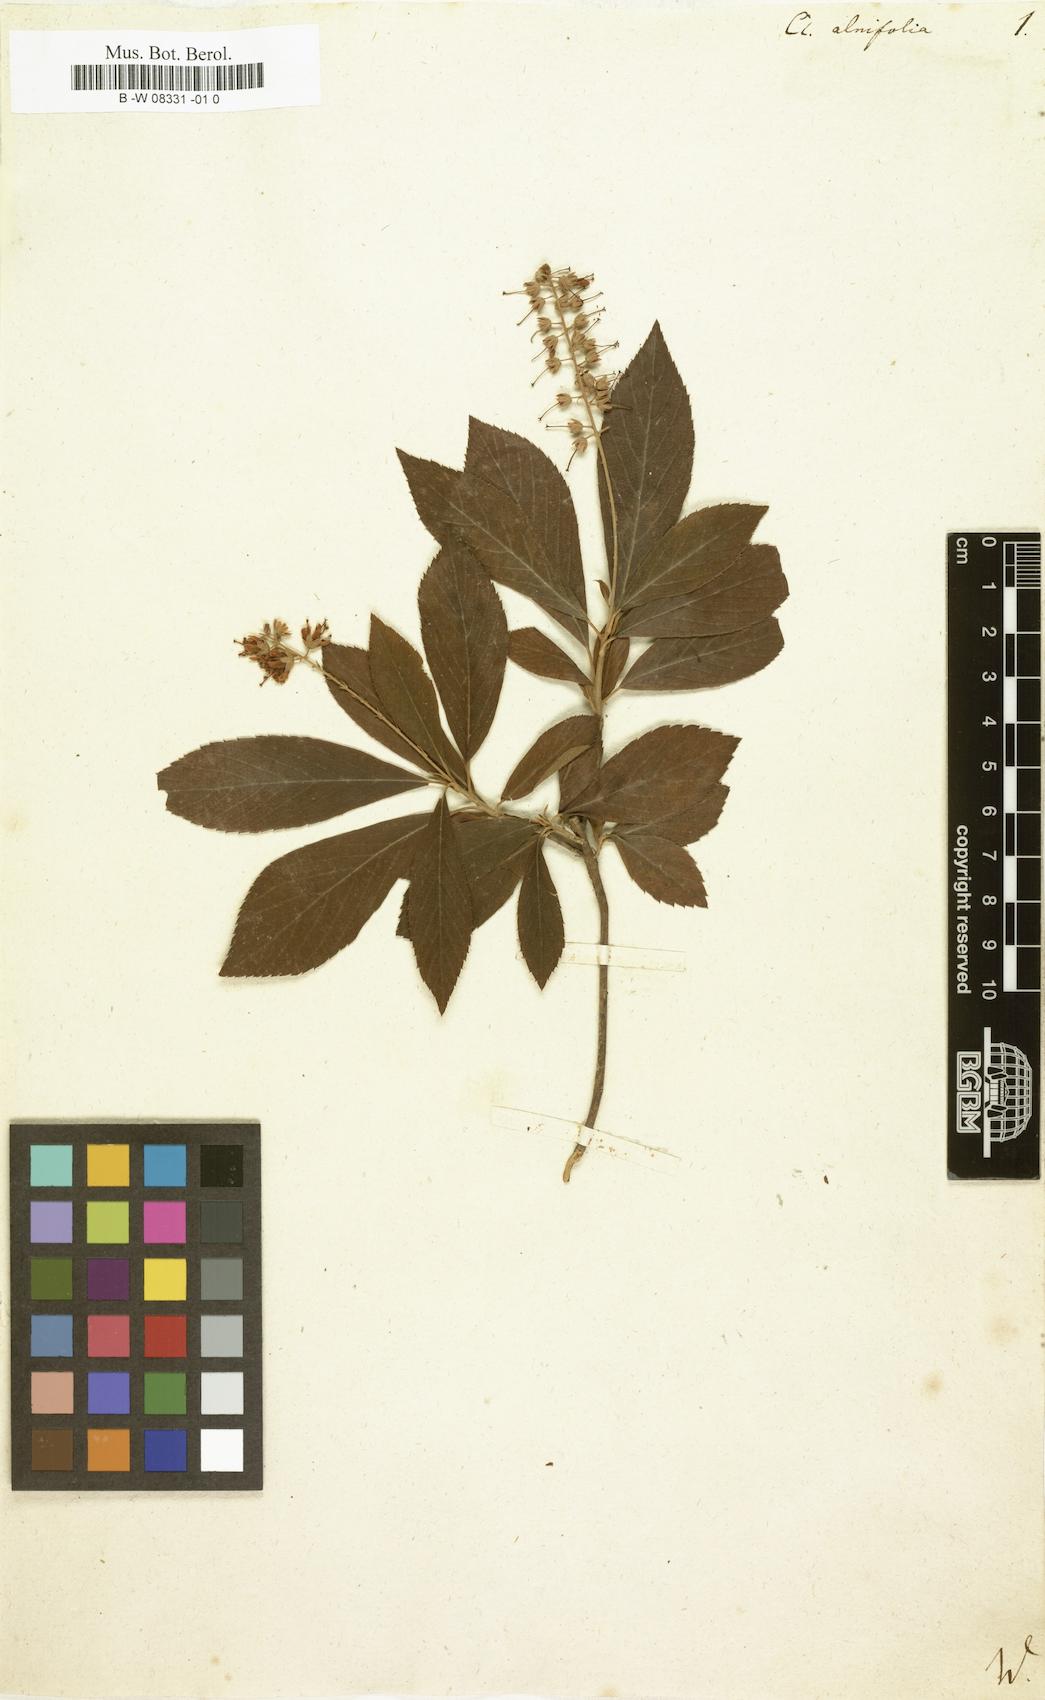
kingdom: Plantae
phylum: Tracheophyta
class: Magnoliopsida
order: Ericales
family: Clethraceae
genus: Clethra
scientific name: Clethra alnifolia
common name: Sweet pepperbush
